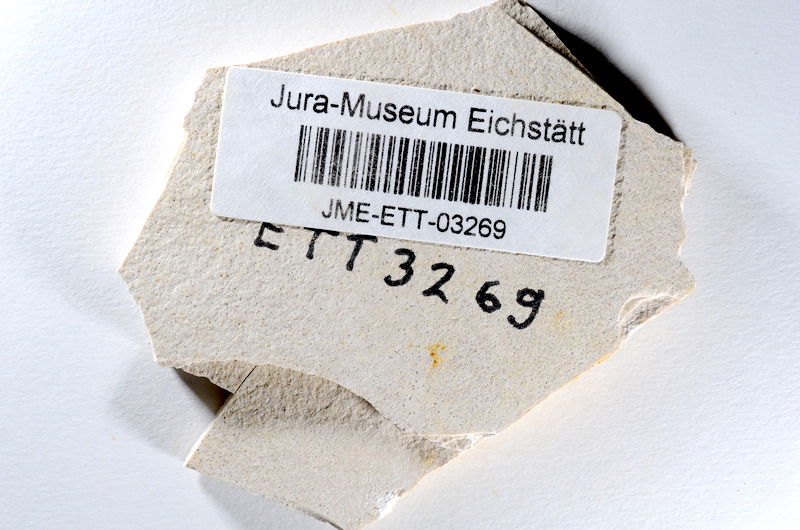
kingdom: Animalia
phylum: Chordata
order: Salmoniformes
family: Orthogonikleithridae
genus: Orthogonikleithrus
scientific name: Orthogonikleithrus hoelli
